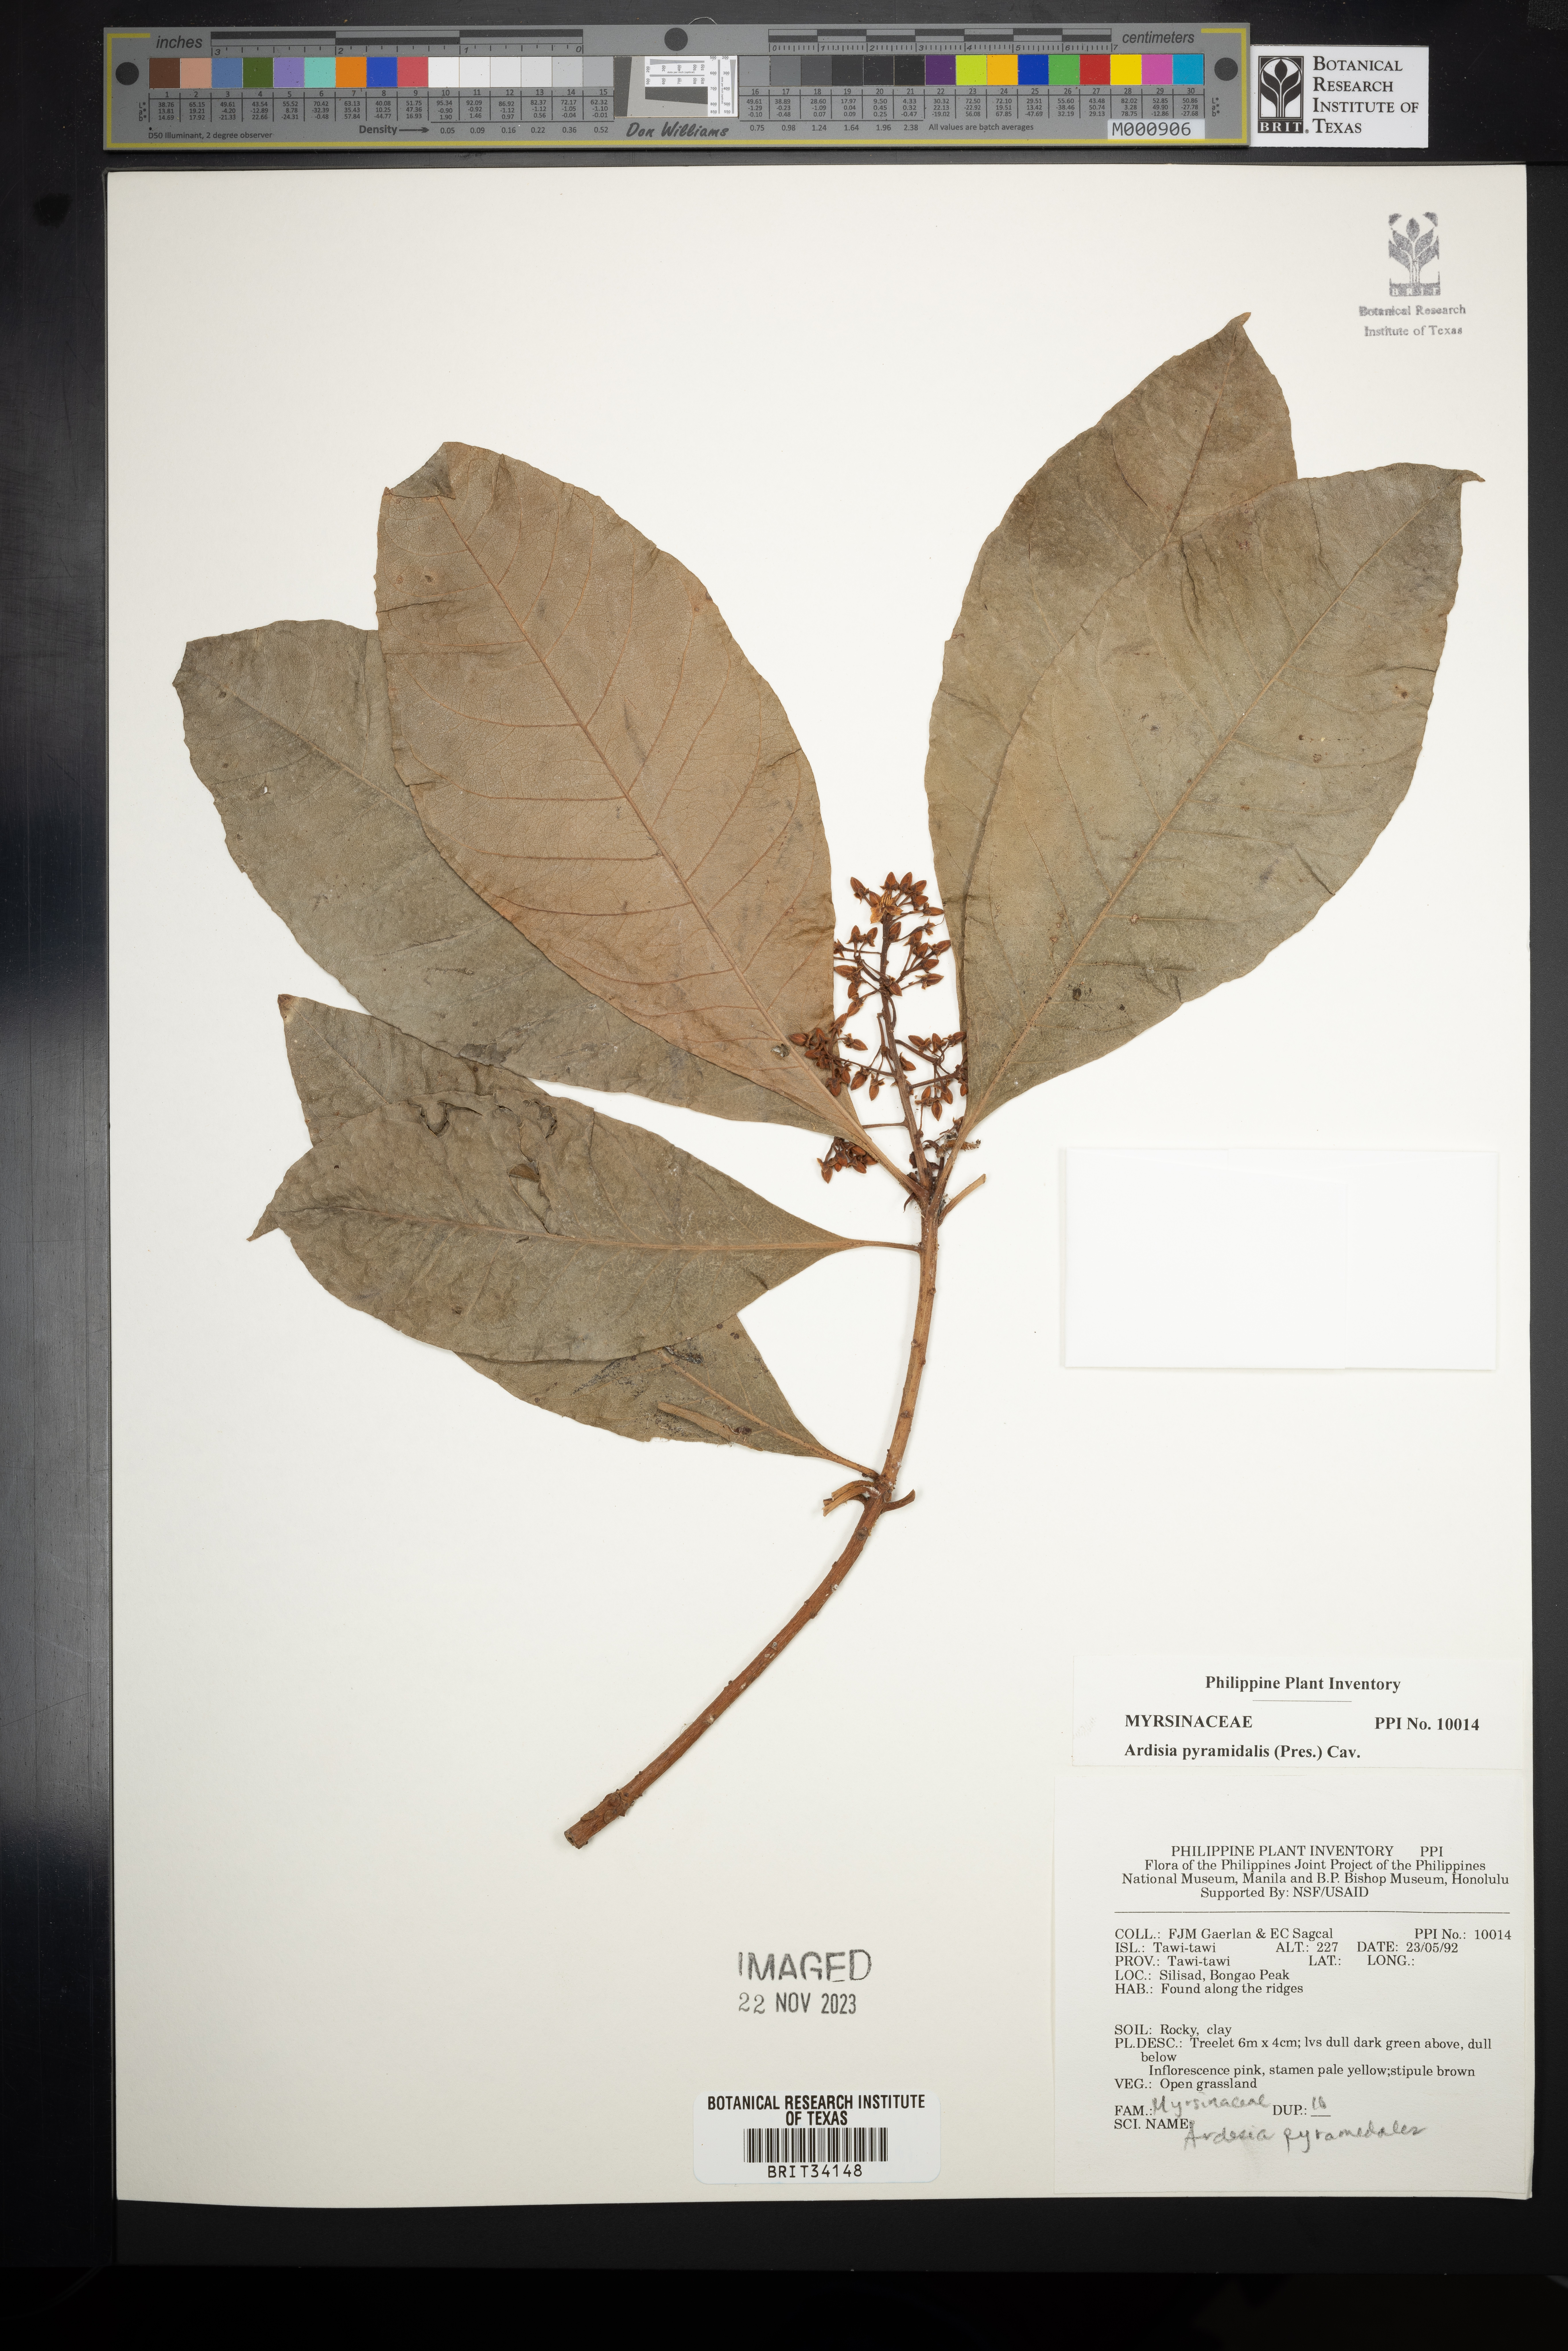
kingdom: Plantae
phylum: Tracheophyta
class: Magnoliopsida
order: Ericales
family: Primulaceae
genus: Ardisia
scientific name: Ardisia pyramidalis
